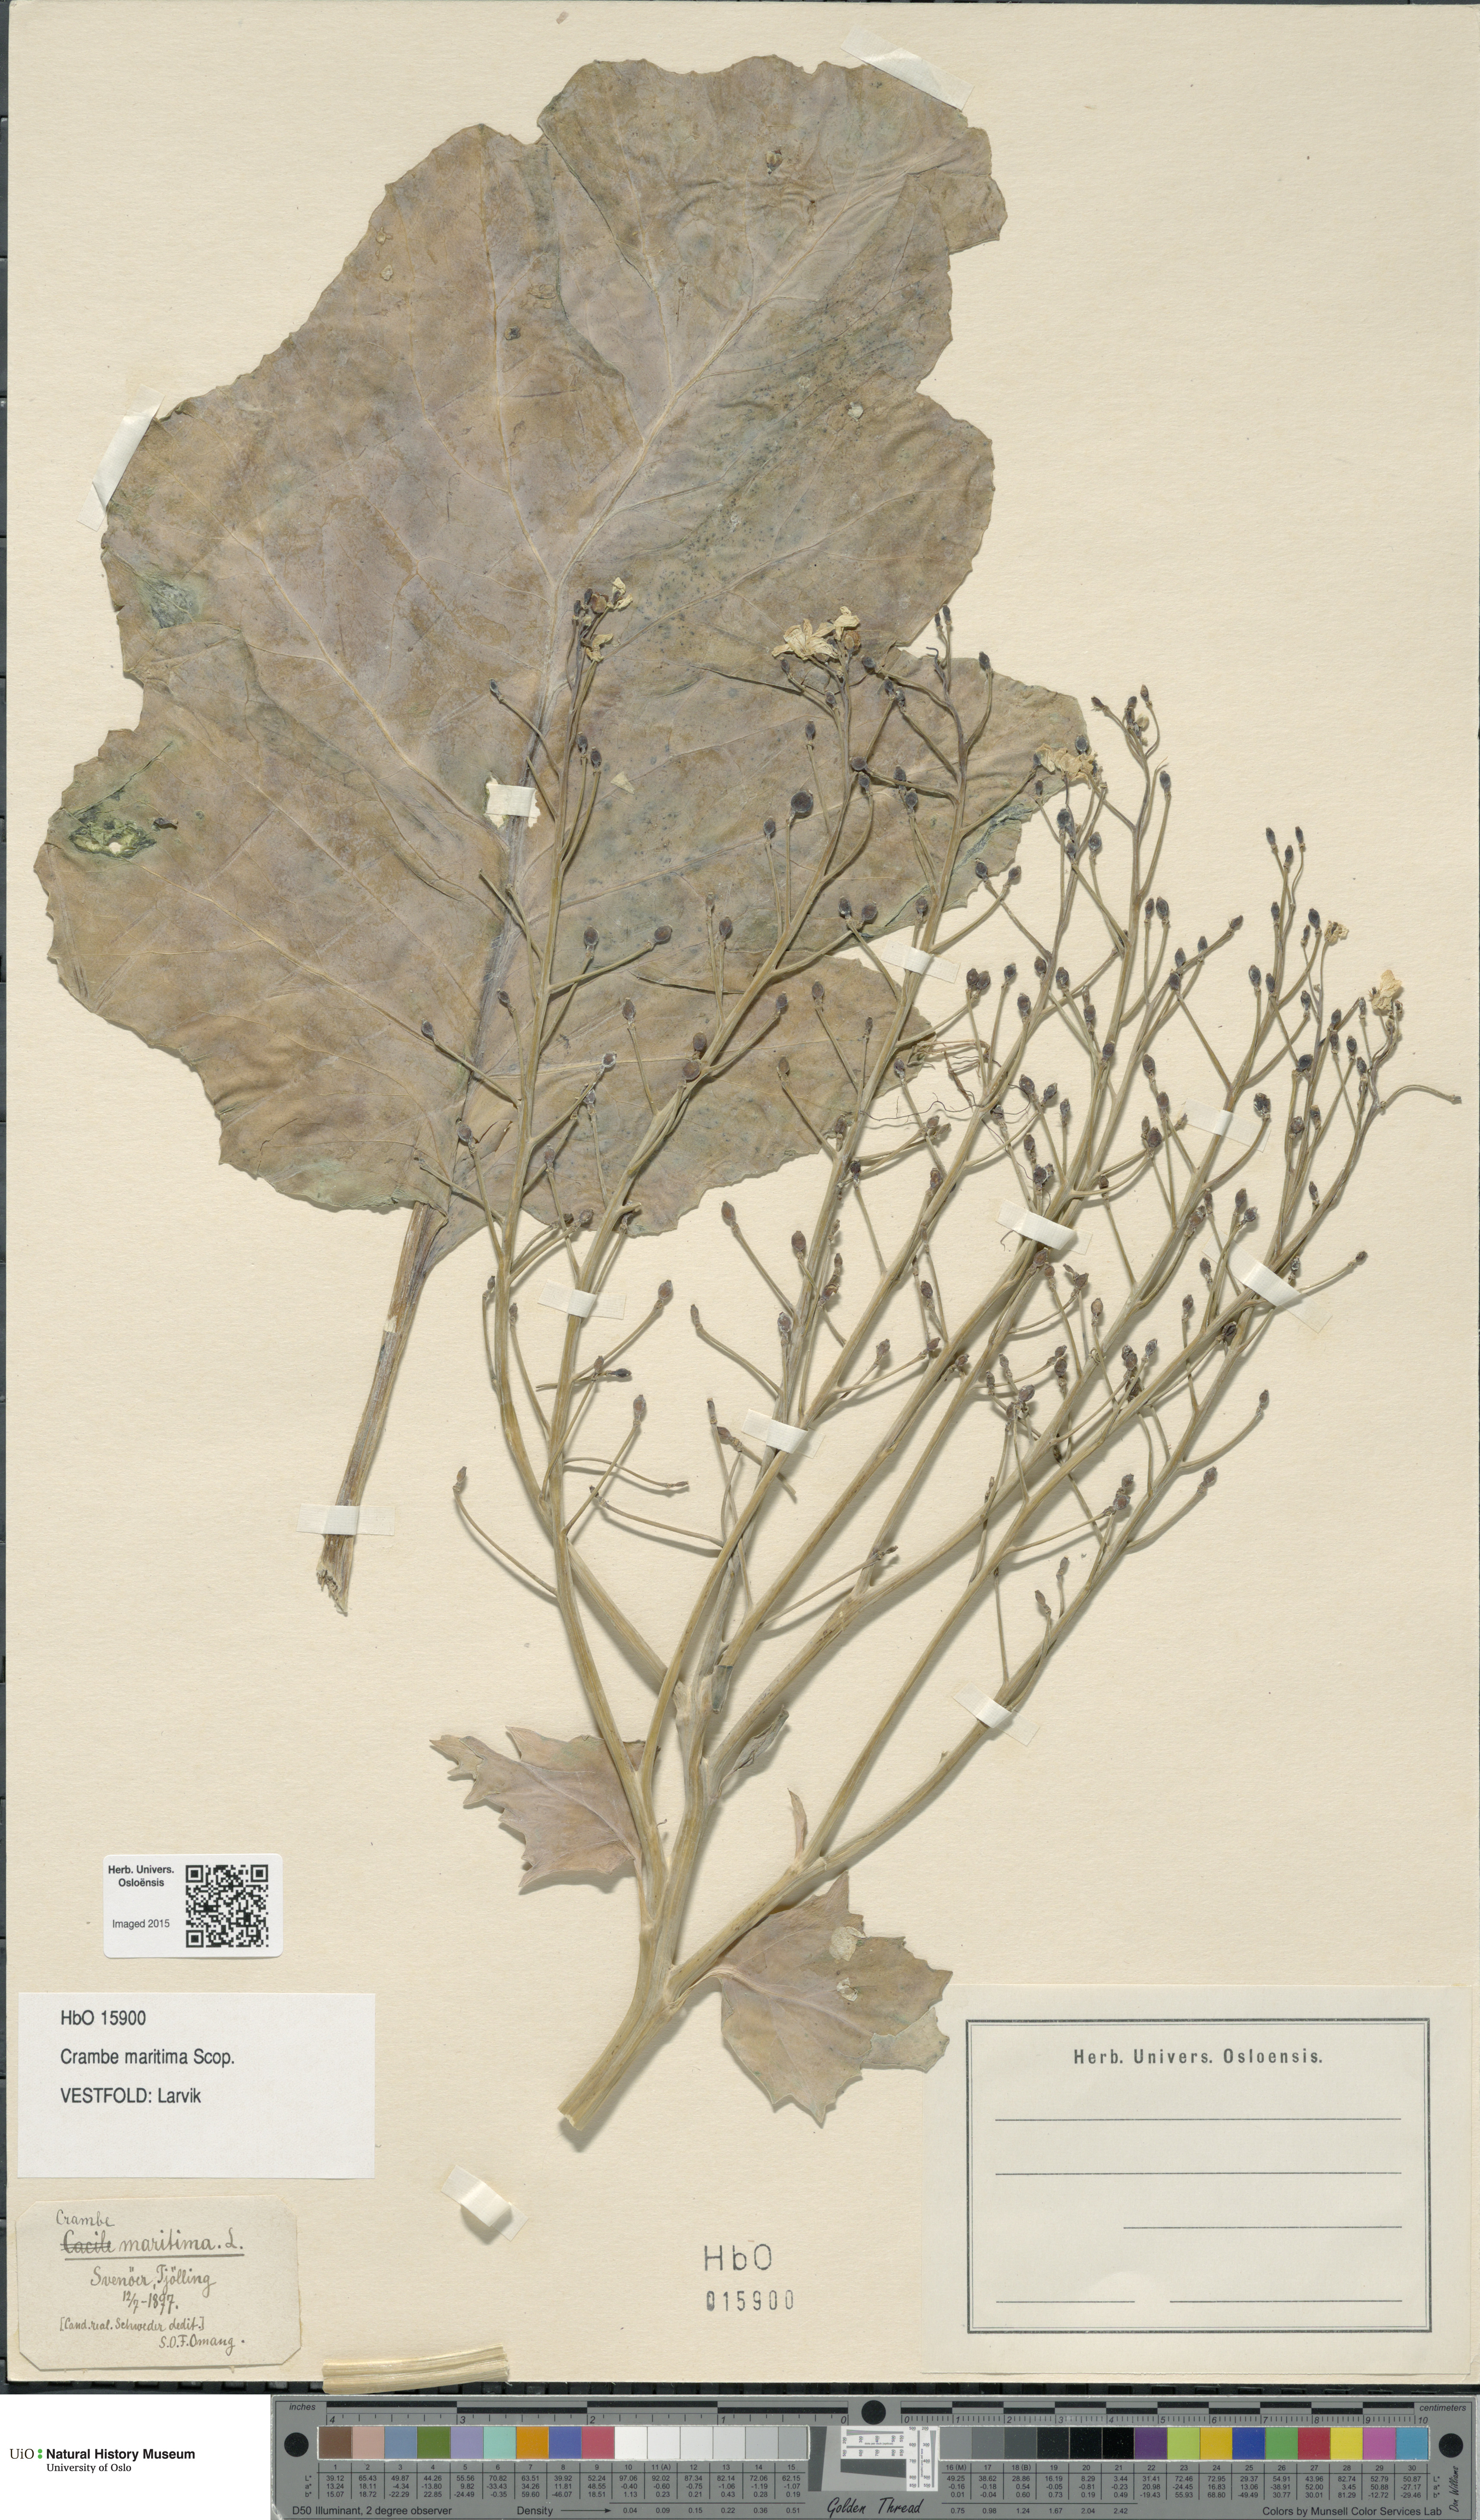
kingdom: Plantae
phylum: Tracheophyta
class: Magnoliopsida
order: Brassicales
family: Brassicaceae
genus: Crambe
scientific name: Crambe maritima
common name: Sea-kale
